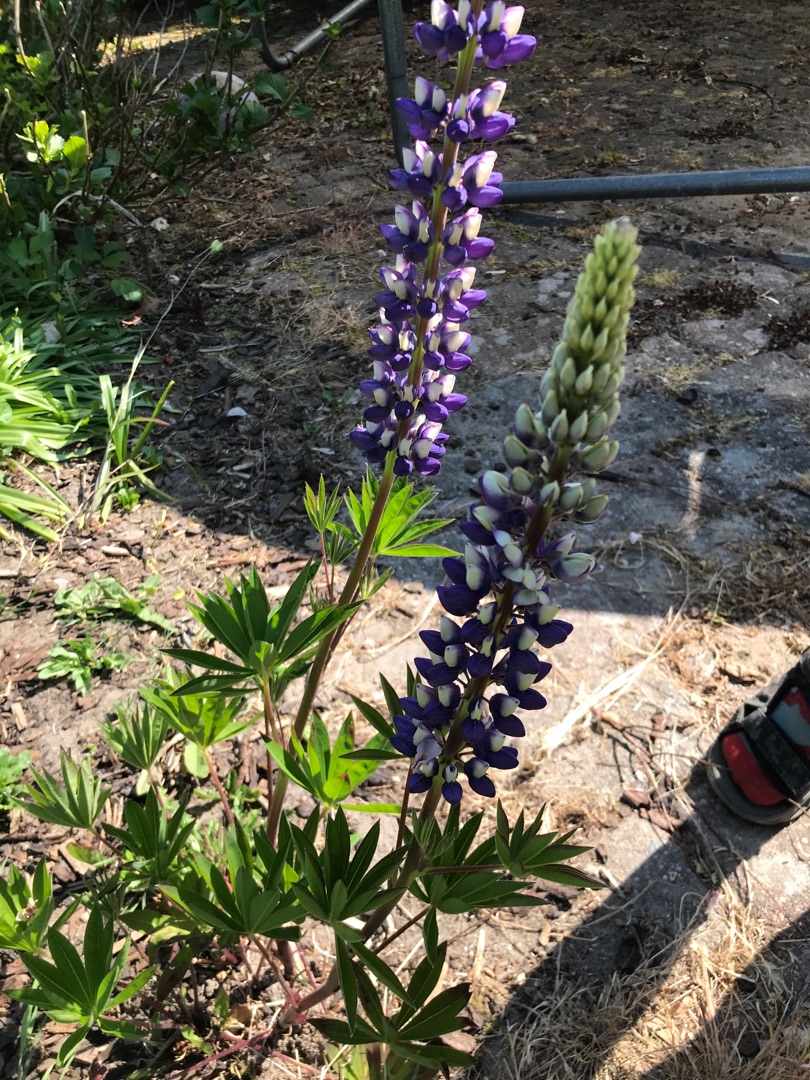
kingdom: Plantae
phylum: Tracheophyta
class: Magnoliopsida
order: Fabales
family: Fabaceae
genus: Lupinus
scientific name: Lupinus polyphyllus
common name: Mangebladet lupin
